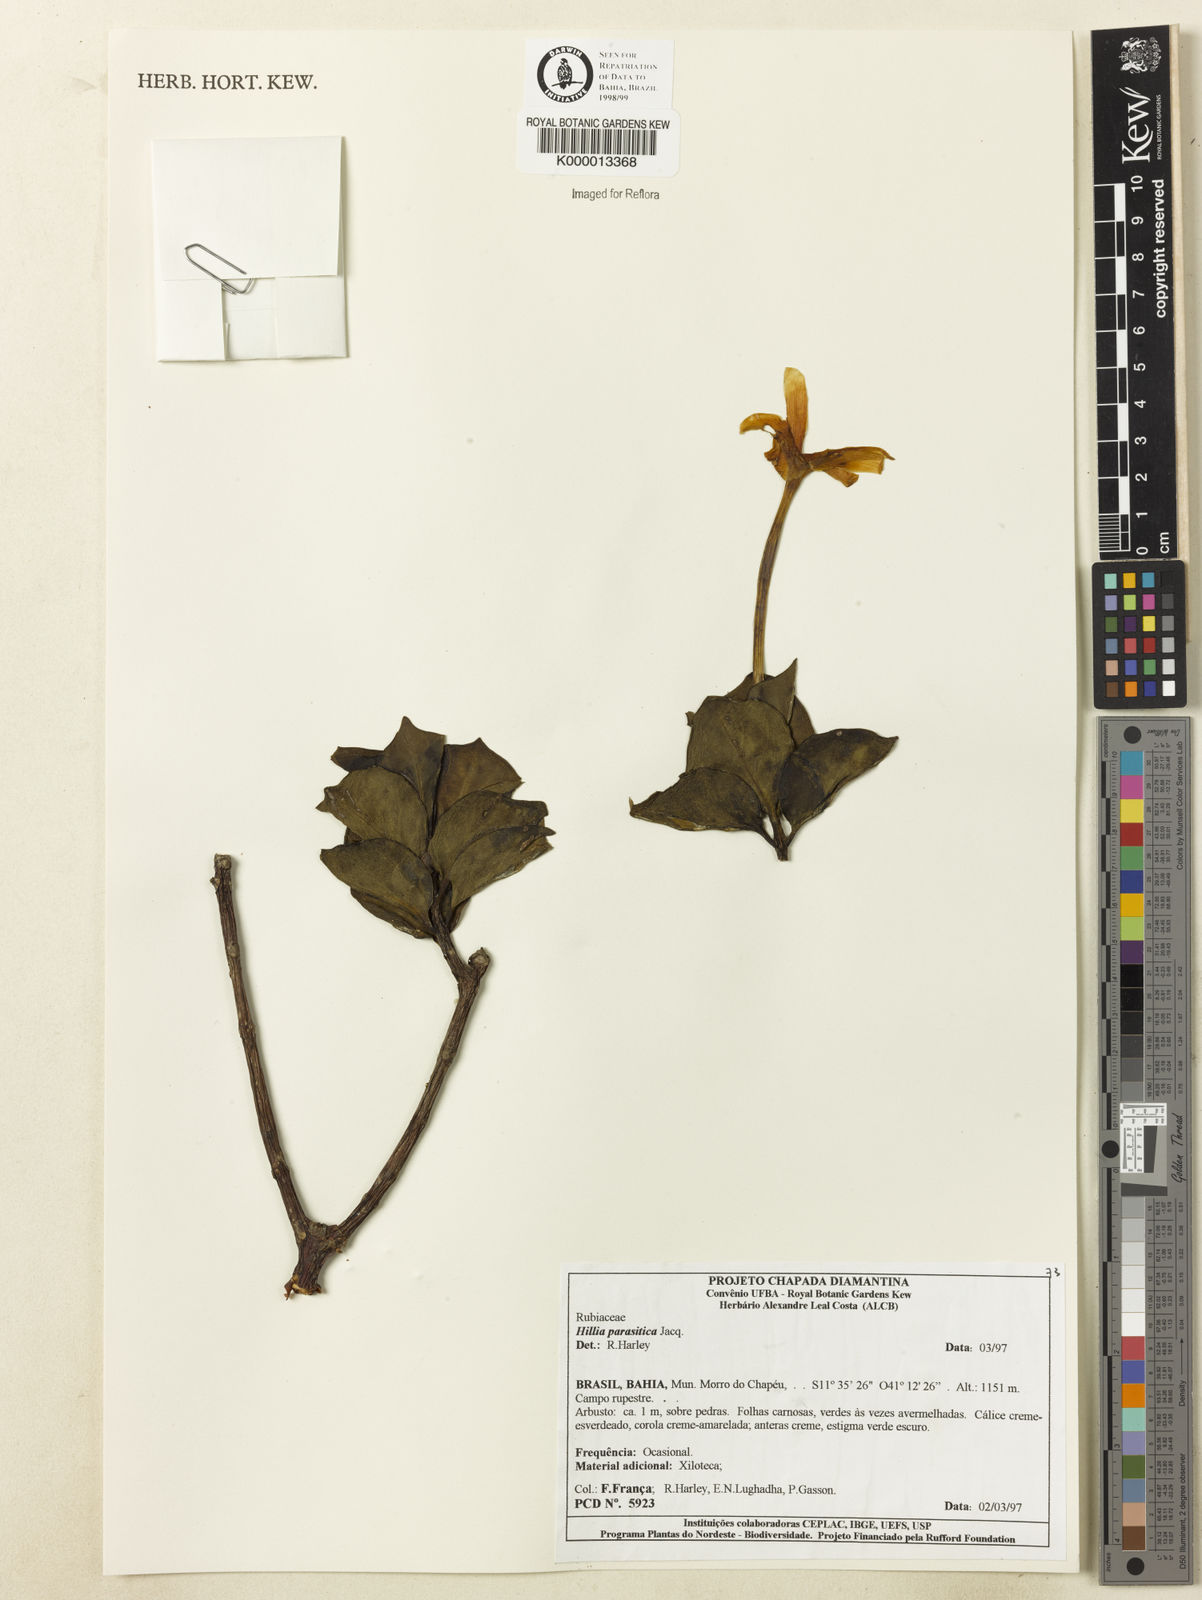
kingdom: Plantae
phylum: Tracheophyta
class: Magnoliopsida
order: Gentianales
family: Rubiaceae
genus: Hillia
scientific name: Hillia parasitica
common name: Morning star
